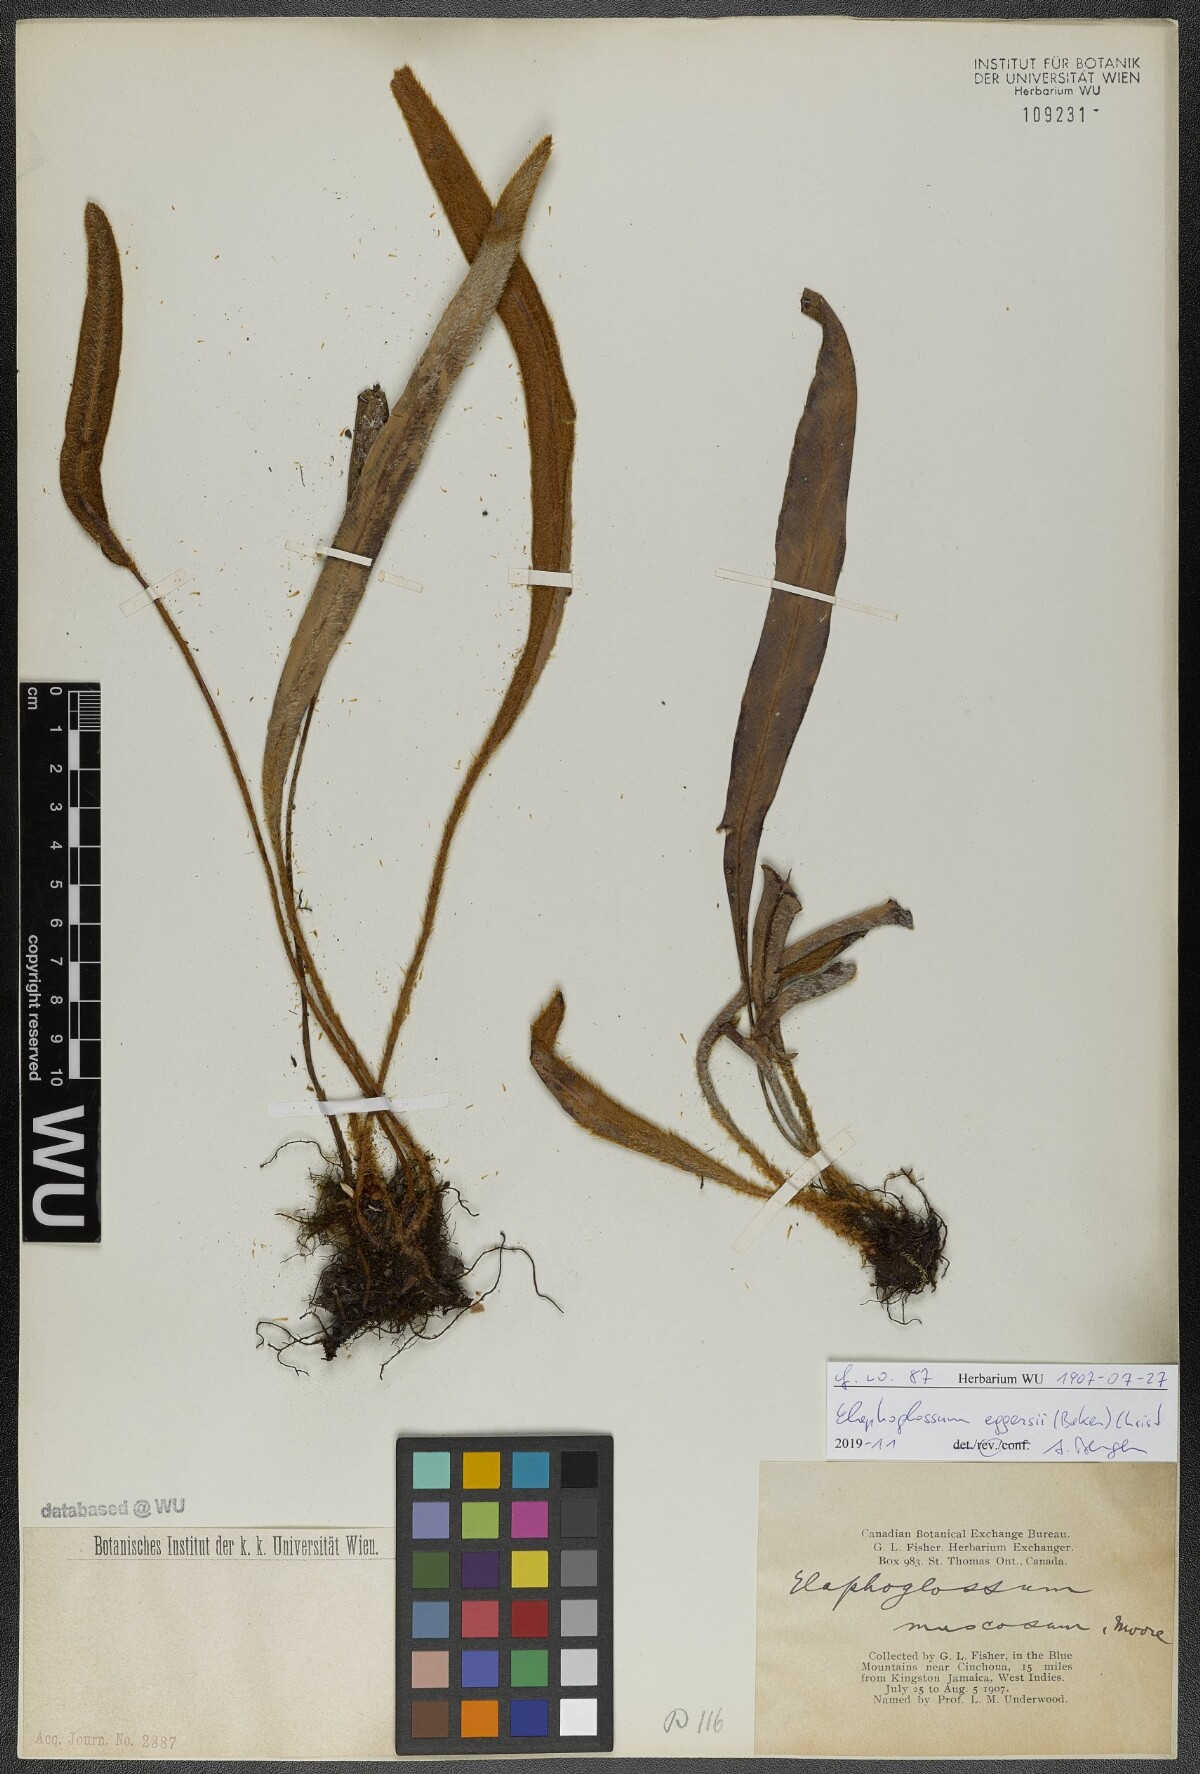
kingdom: Plantae
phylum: Tracheophyta
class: Polypodiopsida
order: Polypodiales
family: Dryopteridaceae
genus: Elaphoglossum
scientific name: Elaphoglossum eggersii
